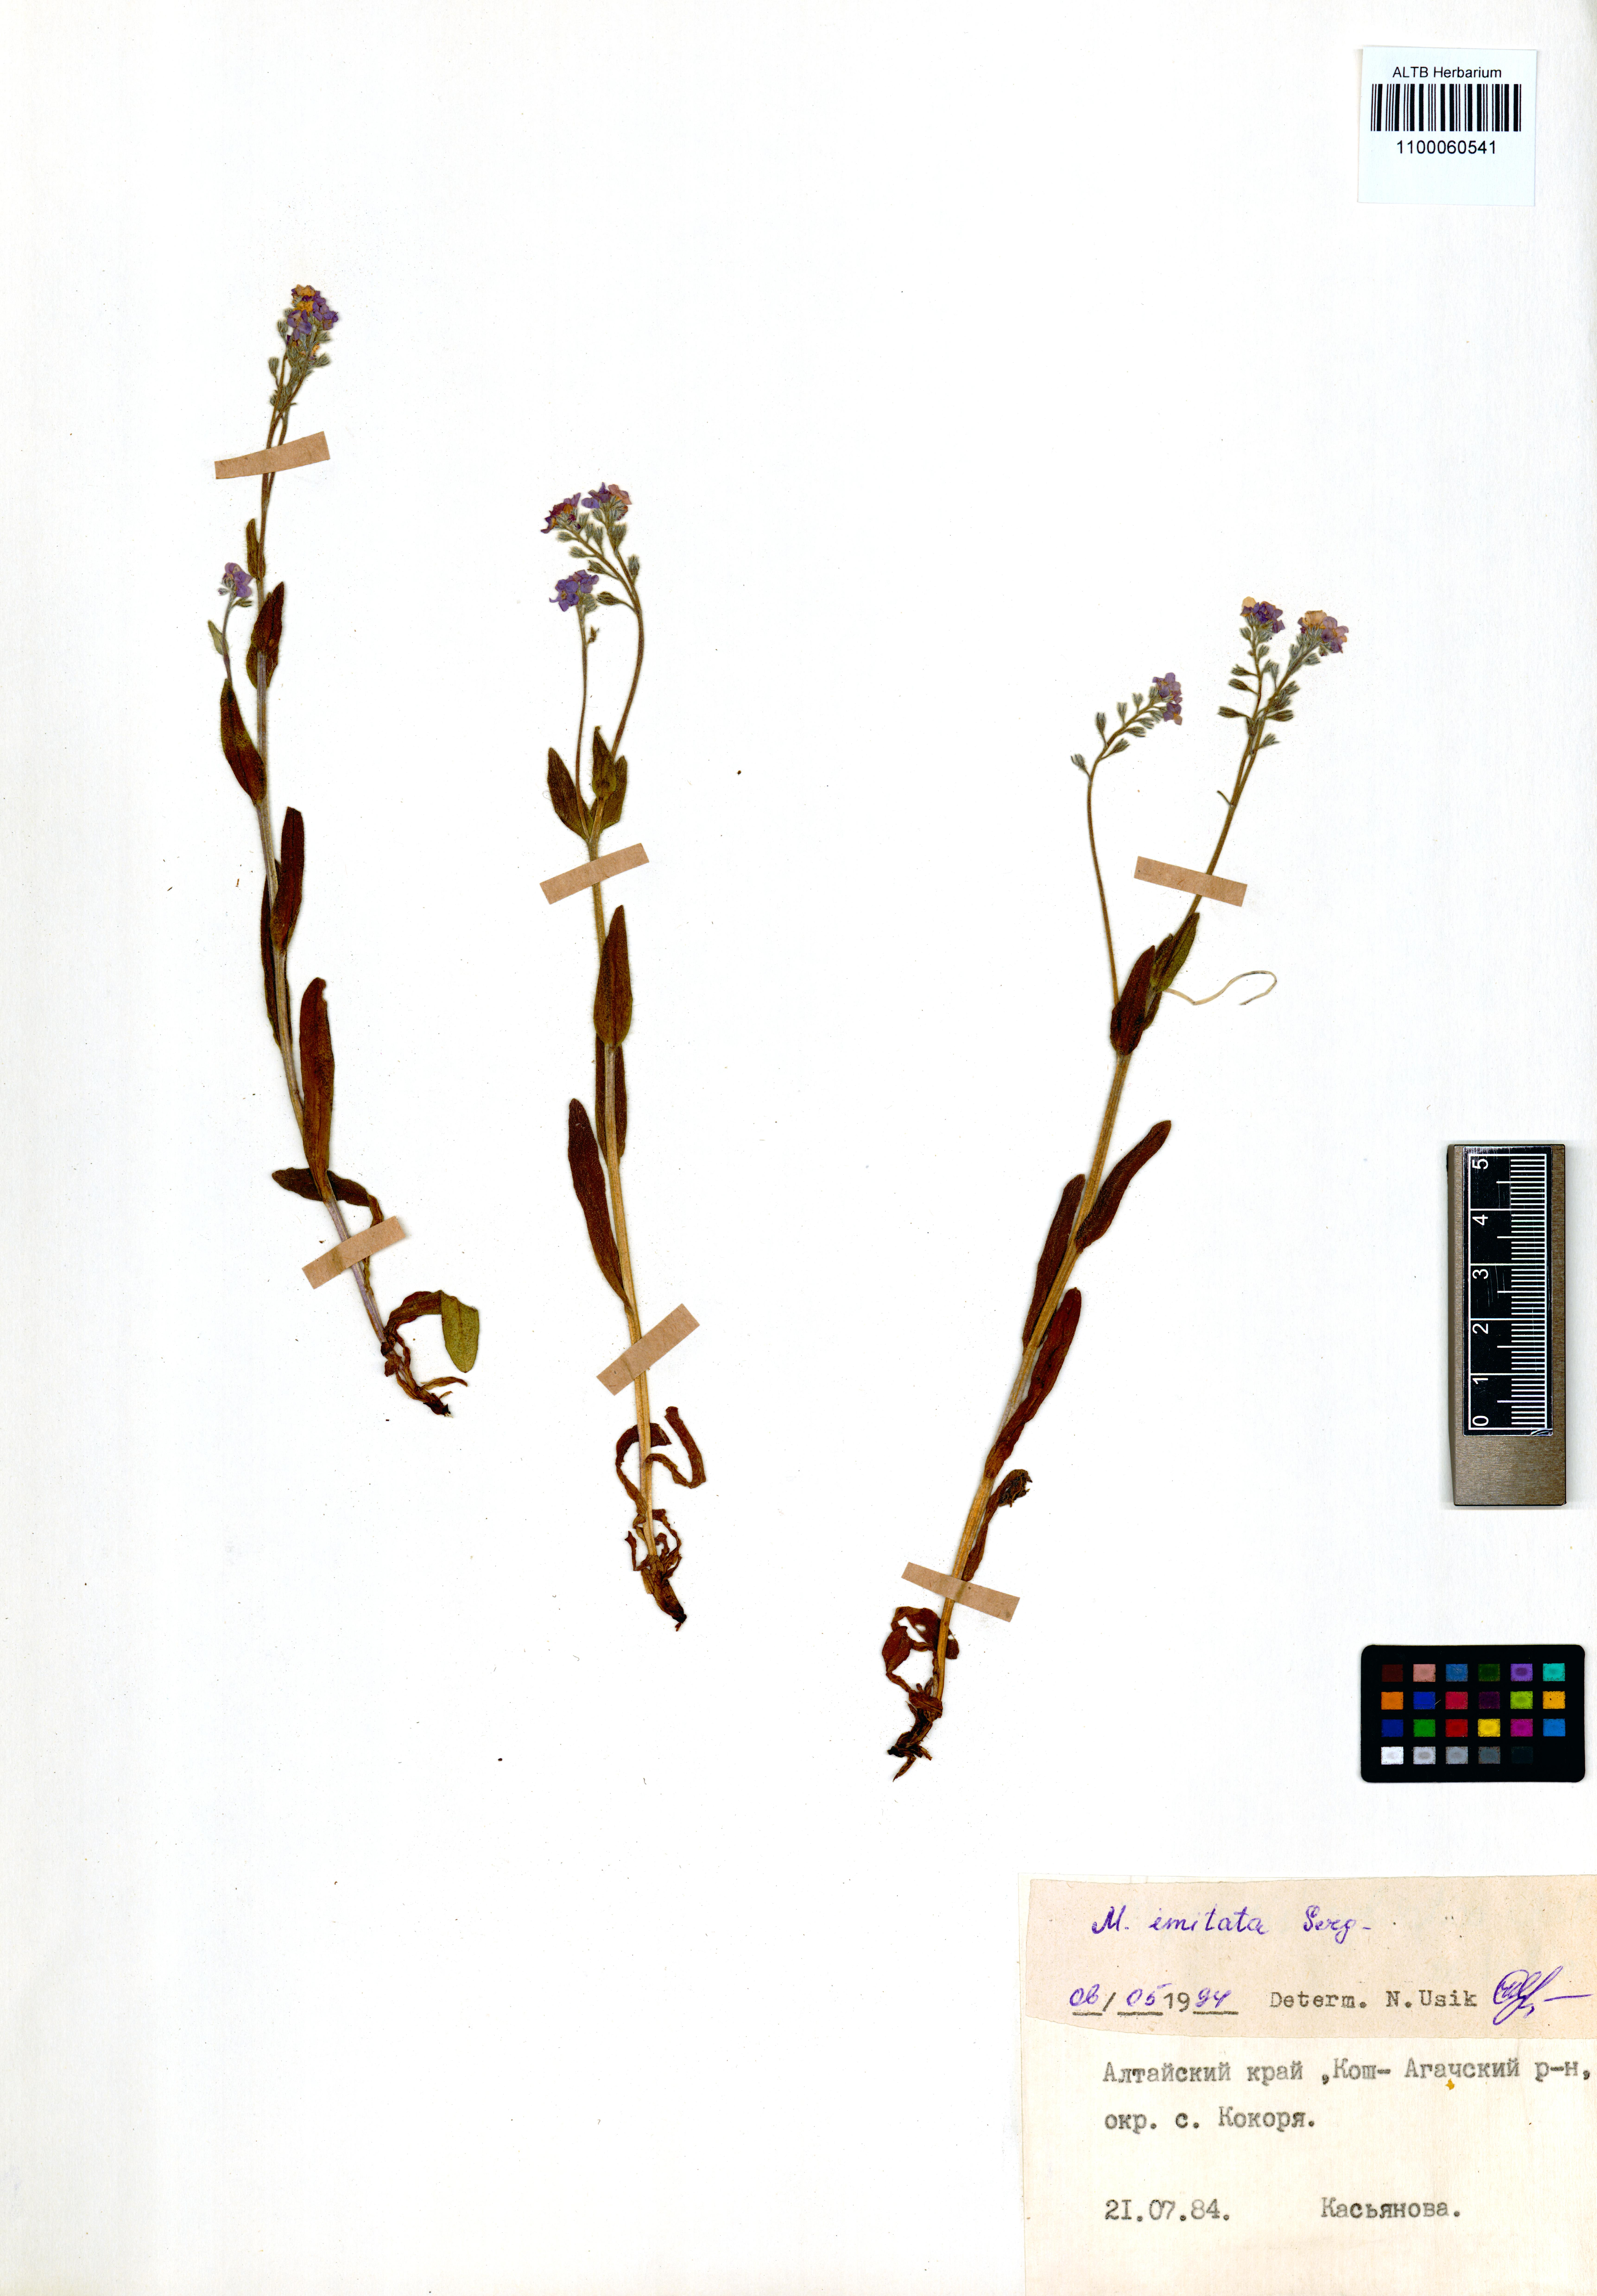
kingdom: Plantae
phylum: Tracheophyta
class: Magnoliopsida
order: Boraginales
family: Boraginaceae
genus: Myosotis
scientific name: Myosotis imitata
